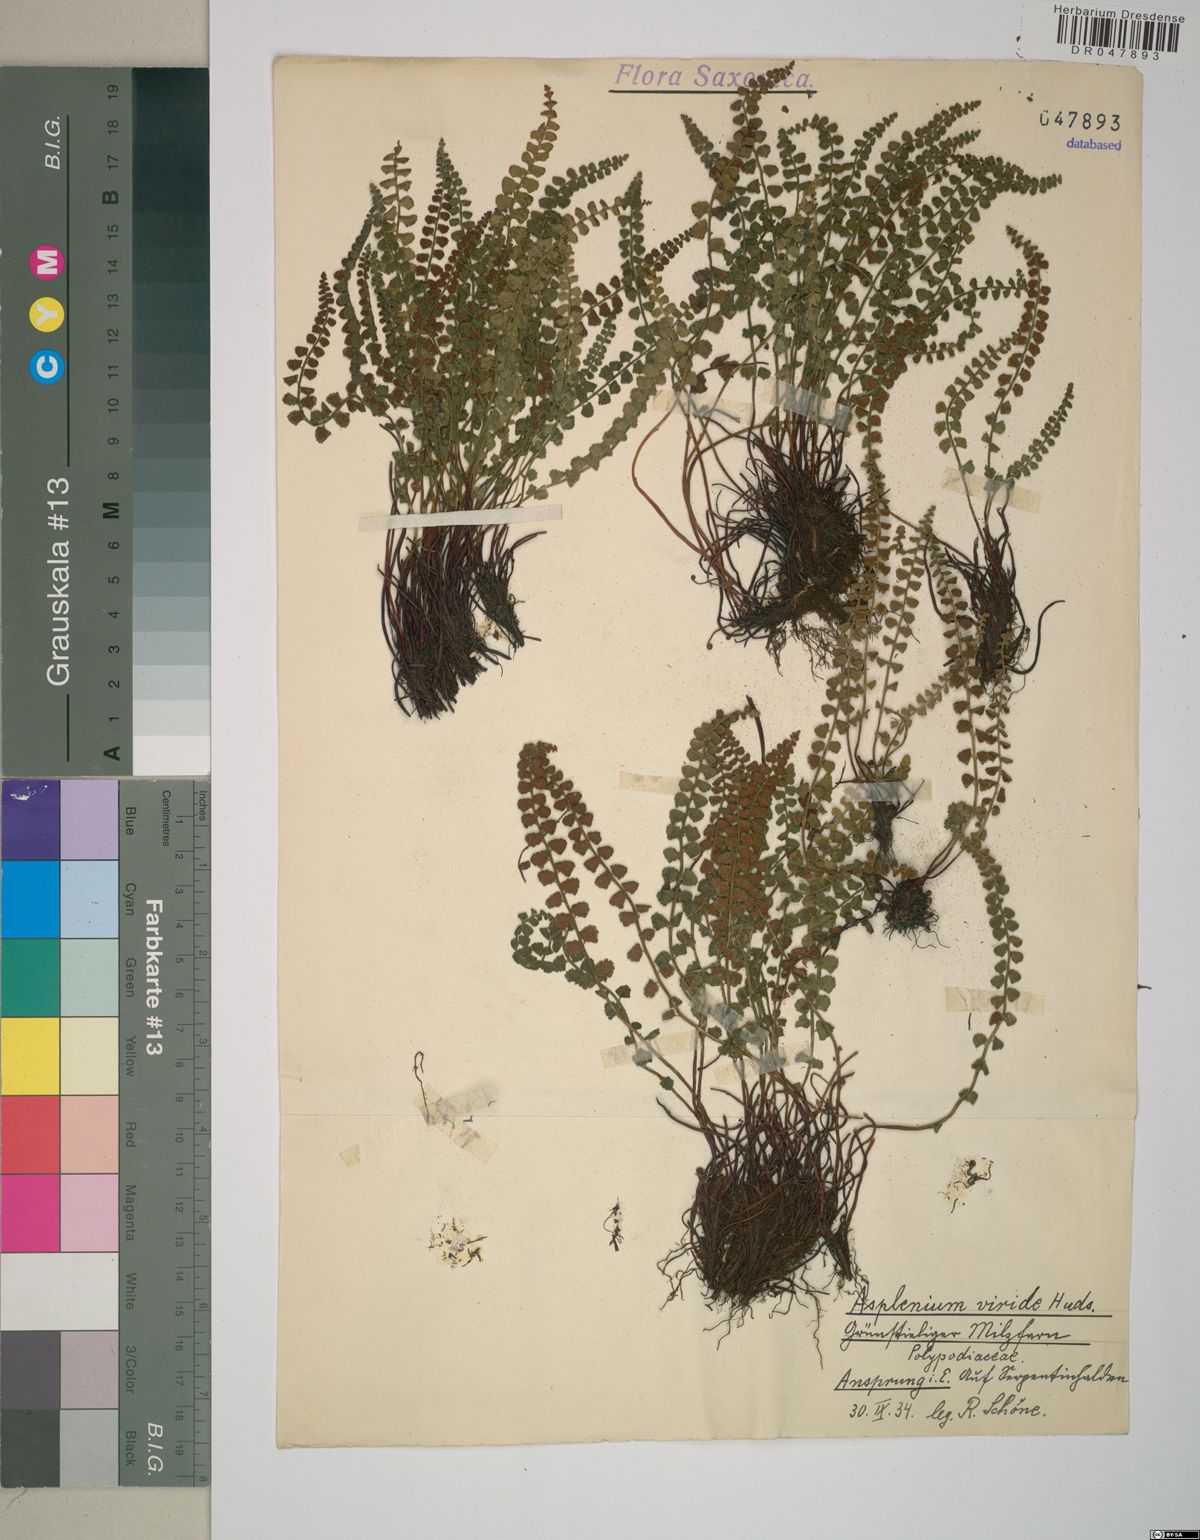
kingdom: Plantae
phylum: Tracheophyta
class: Polypodiopsida
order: Polypodiales
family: Aspleniaceae
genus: Asplenium
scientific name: Asplenium viride
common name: Green spleenwort
